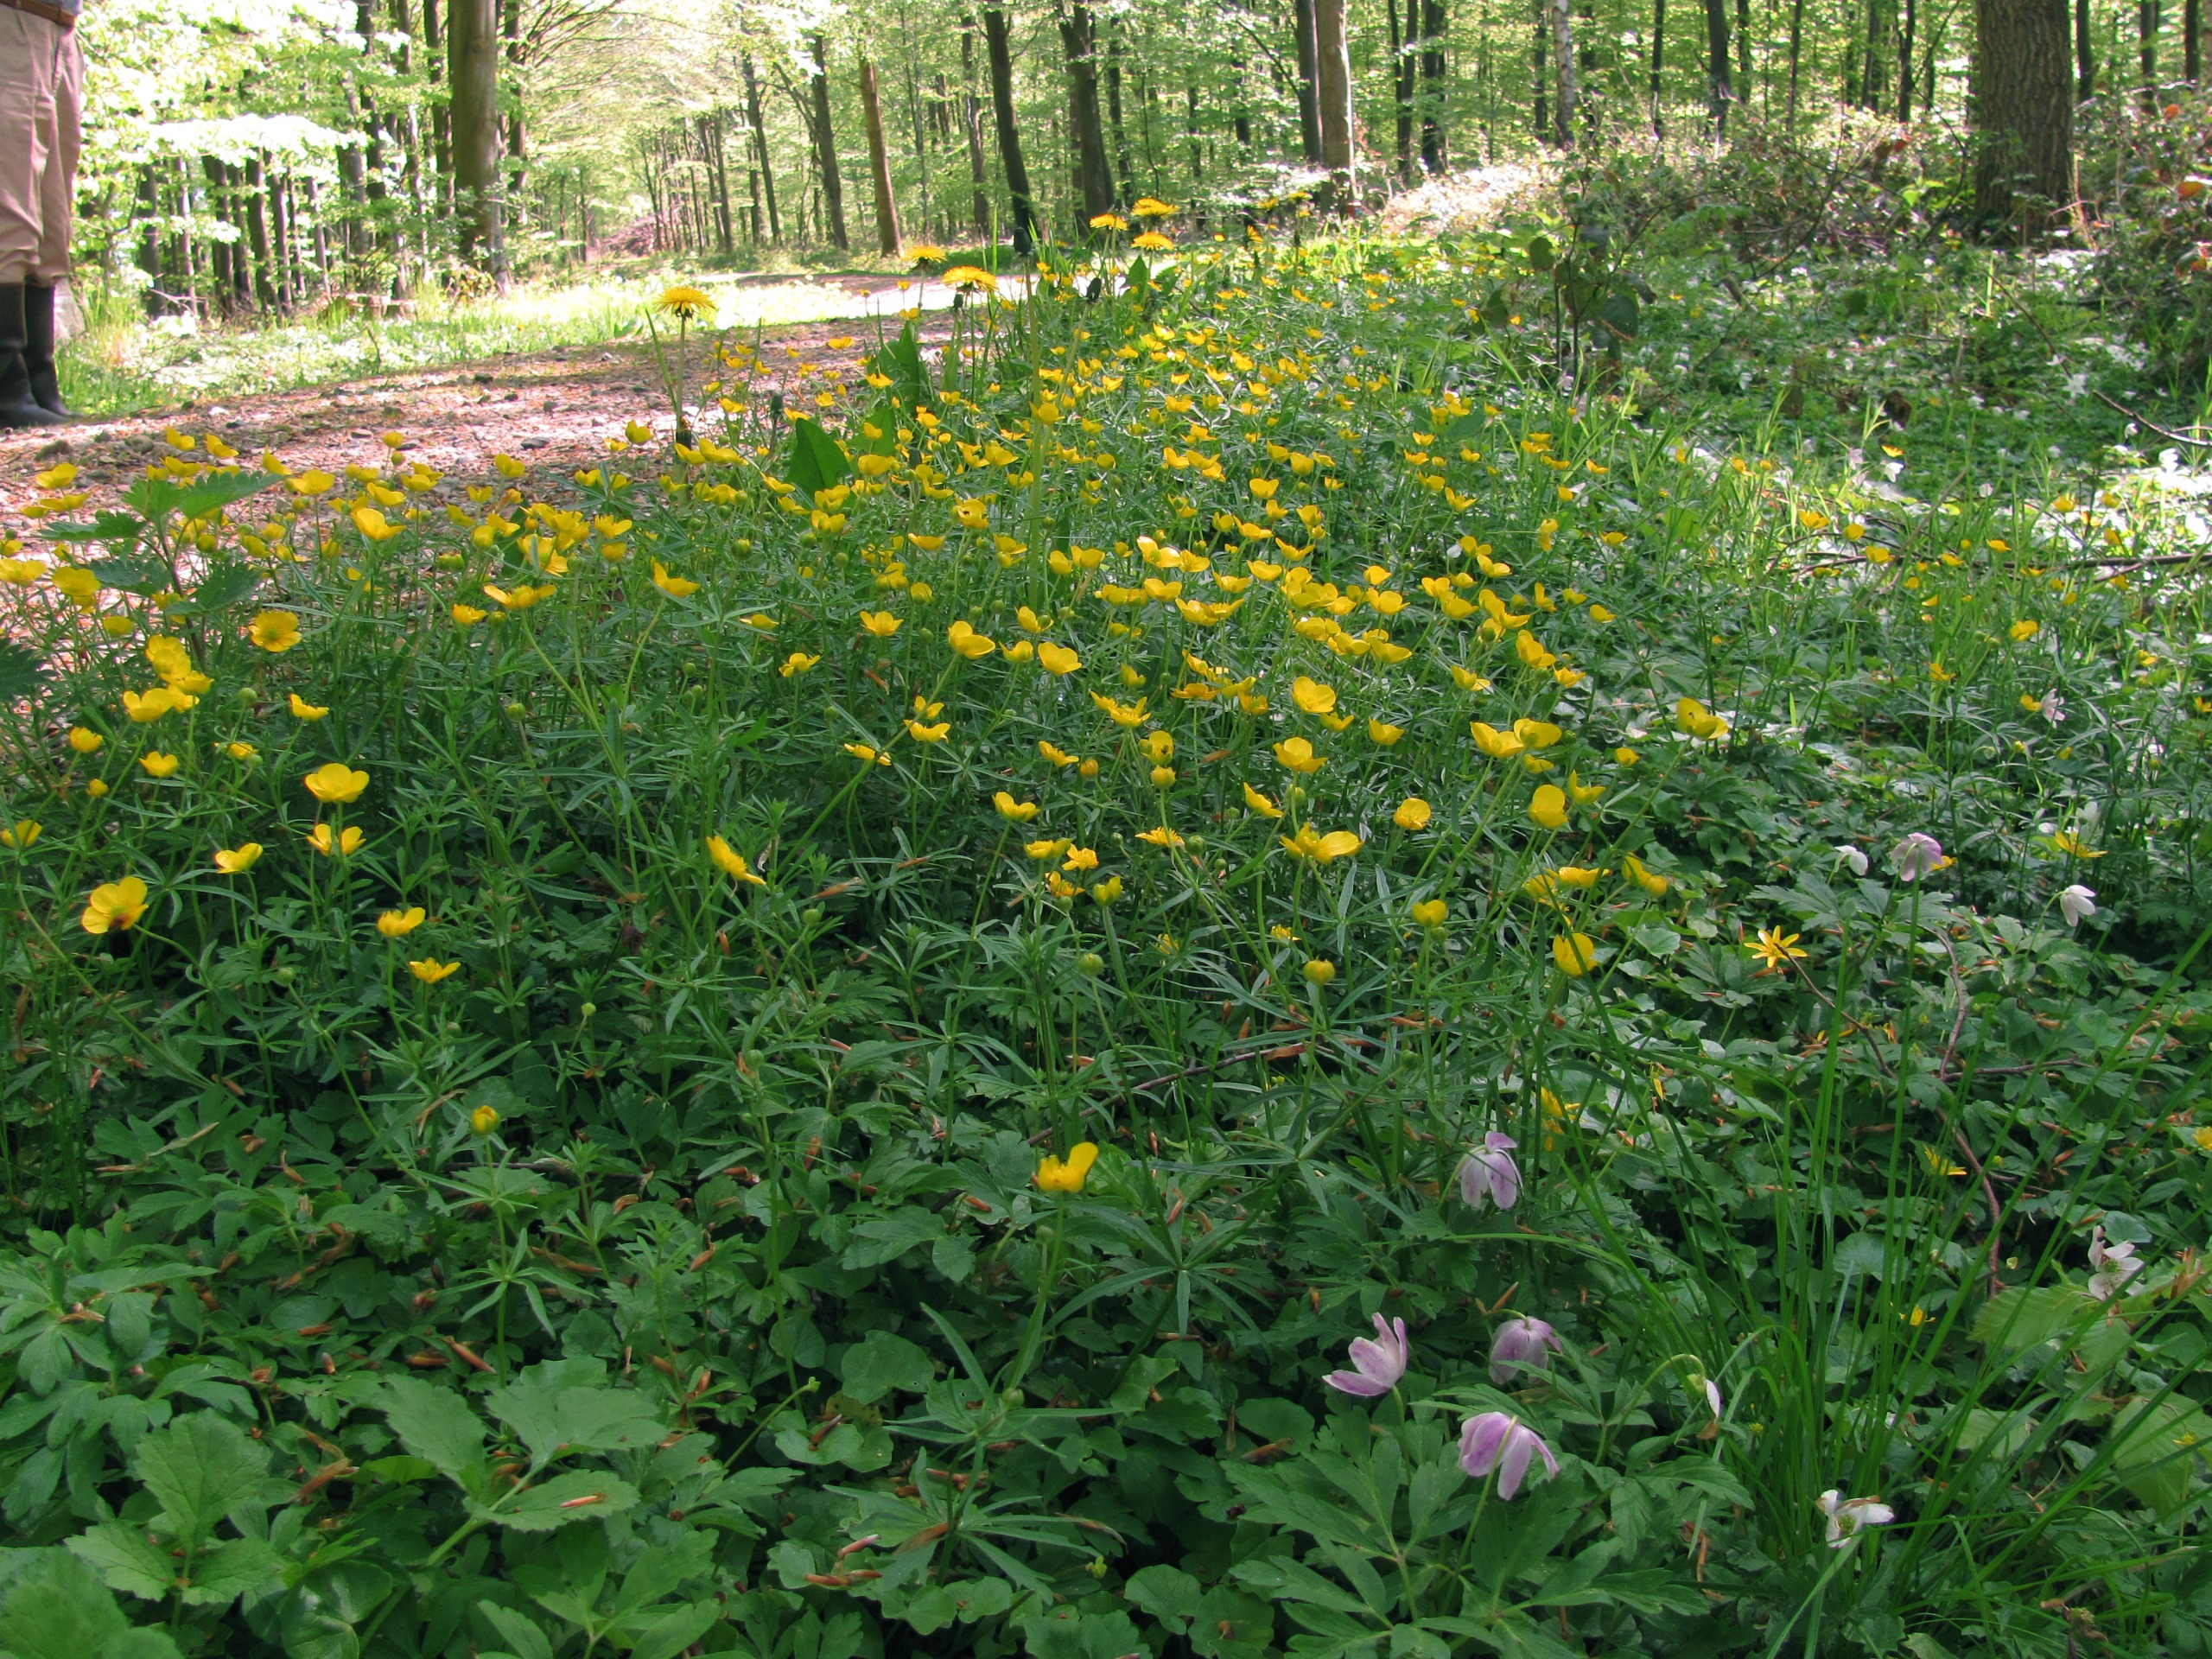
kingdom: Plantae
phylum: Tracheophyta
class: Magnoliopsida
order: Ranunculales
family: Ranunculaceae
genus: Ranunculus
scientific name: Ranunculus auricomus
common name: Nyrebladet ranunkel
